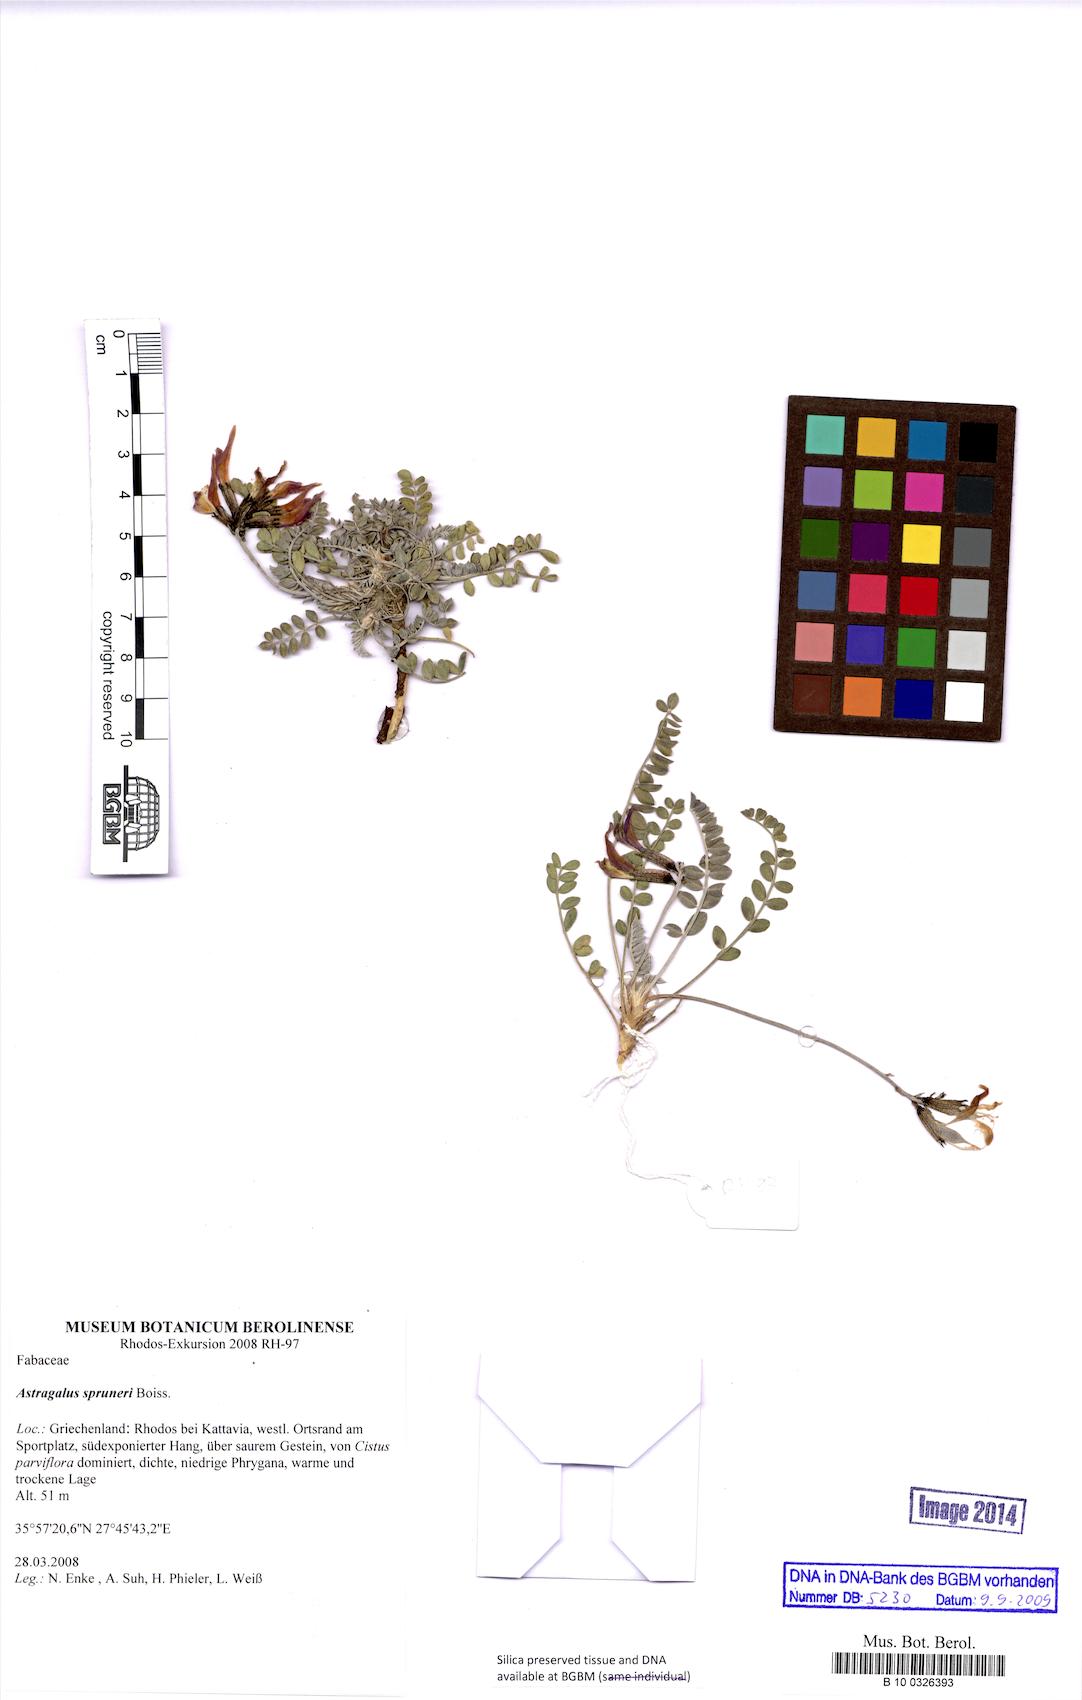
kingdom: Plantae
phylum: Tracheophyta
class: Magnoliopsida
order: Fabales
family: Fabaceae
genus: Astragalus
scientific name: Astragalus spruneri
